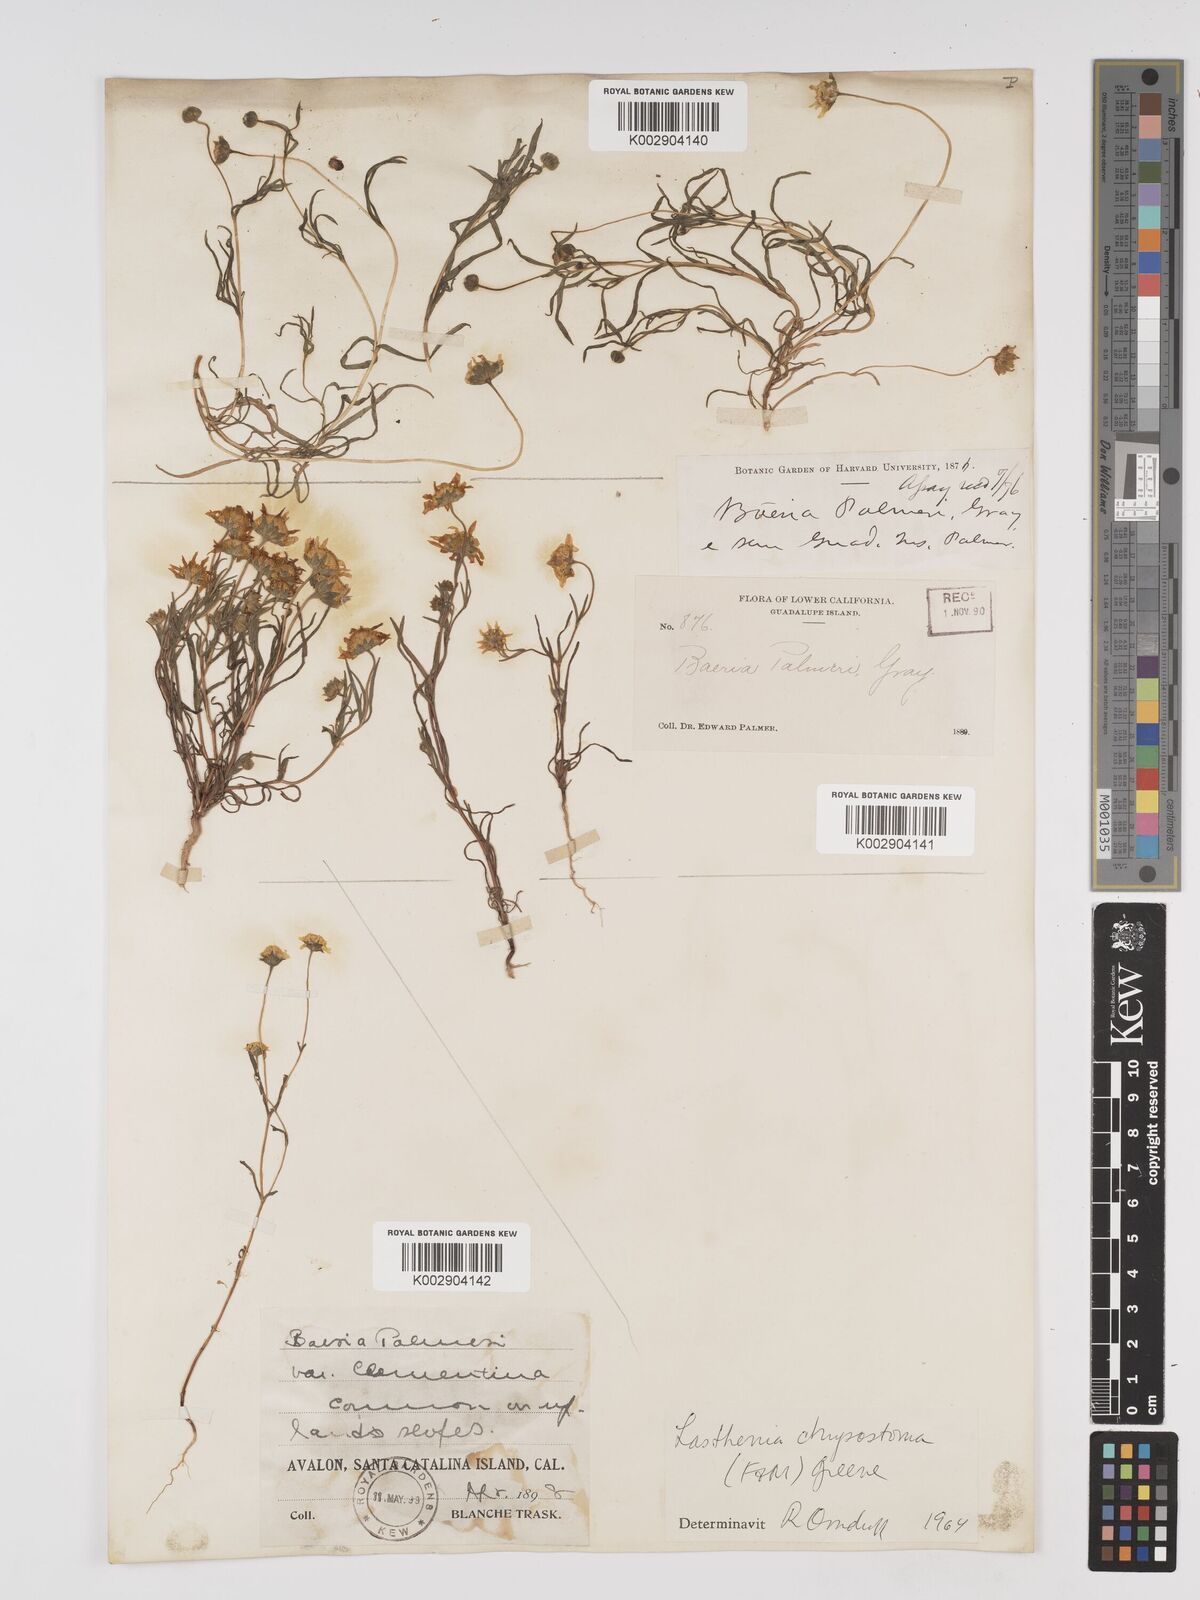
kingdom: Plantae
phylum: Tracheophyta
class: Magnoliopsida
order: Asterales
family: Asteraceae
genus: Lasthenia
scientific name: Lasthenia chrysantha
